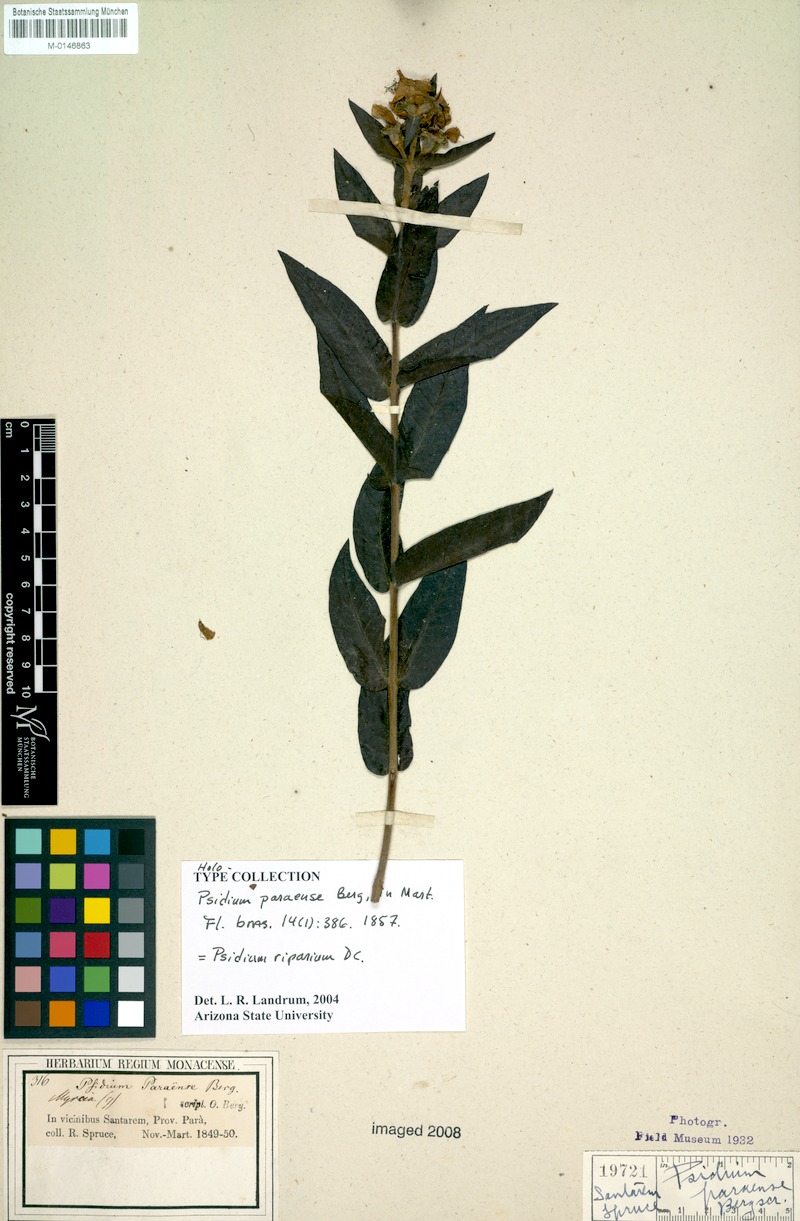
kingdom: Plantae
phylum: Tracheophyta
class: Magnoliopsida
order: Myrtales
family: Myrtaceae
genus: Psidium
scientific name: Psidium riparium
